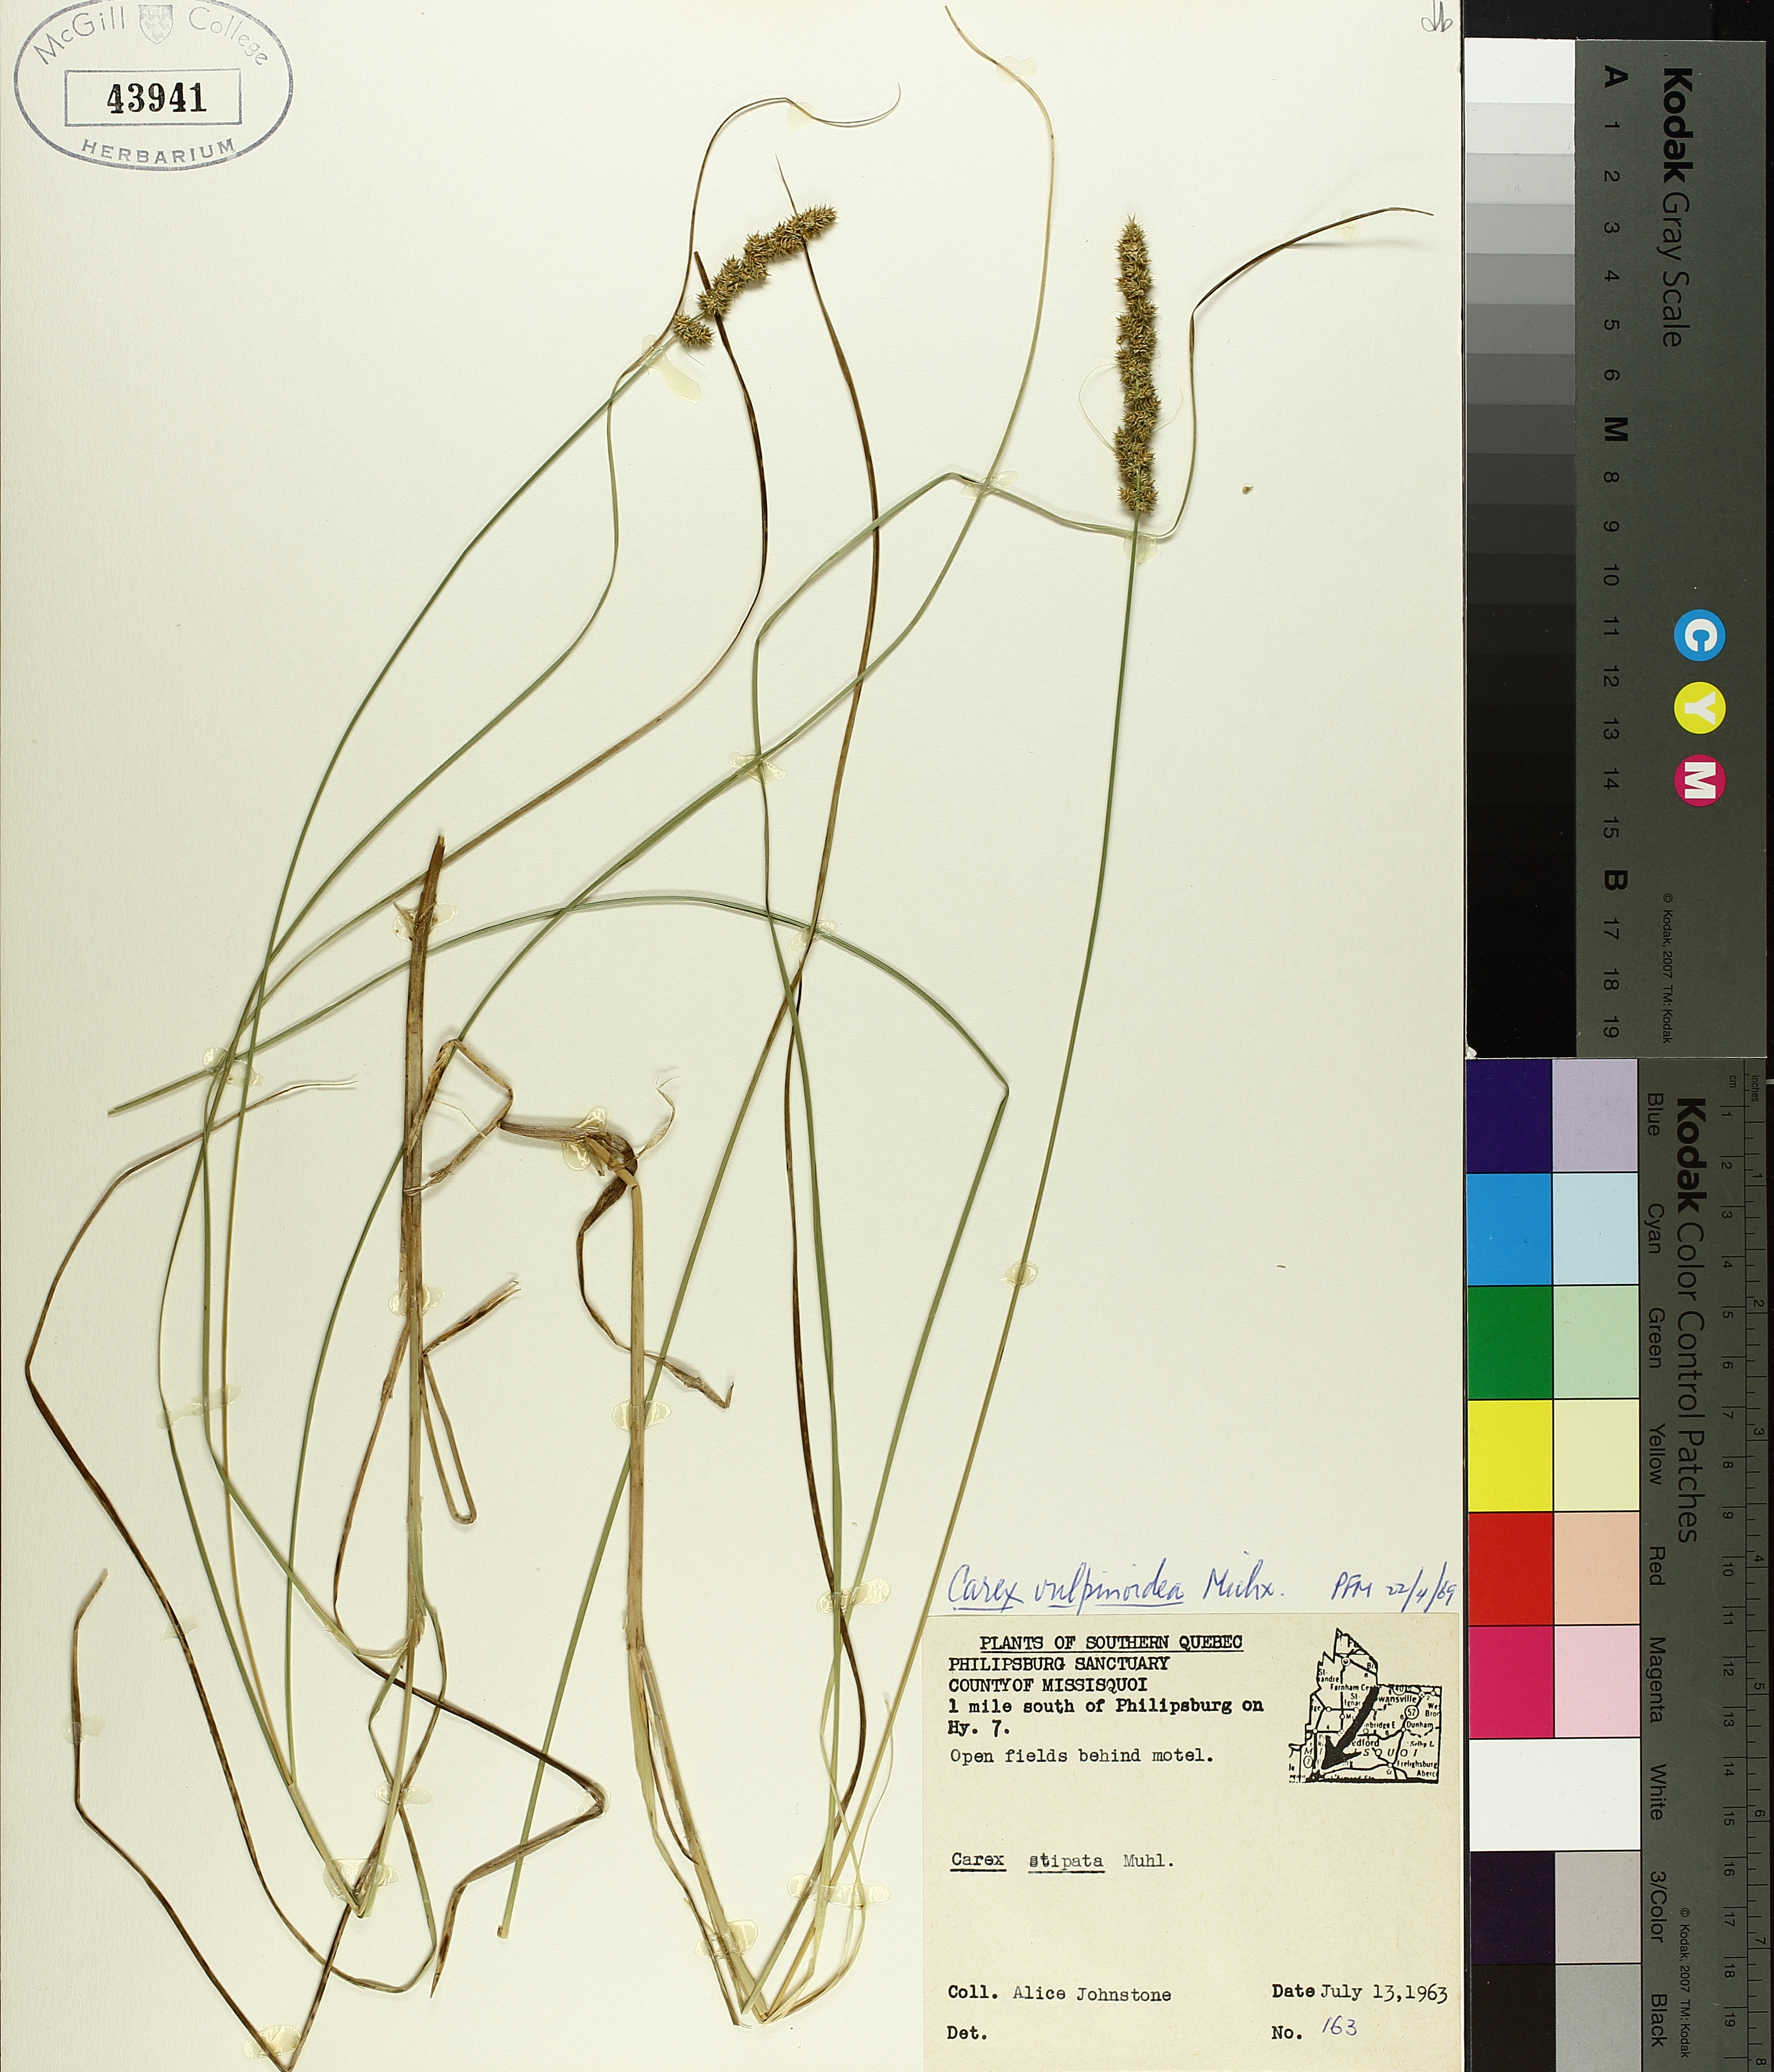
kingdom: Plantae
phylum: Tracheophyta
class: Liliopsida
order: Poales
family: Cyperaceae
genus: Carex
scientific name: Carex vulpinoidea
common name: American fox-sedge
